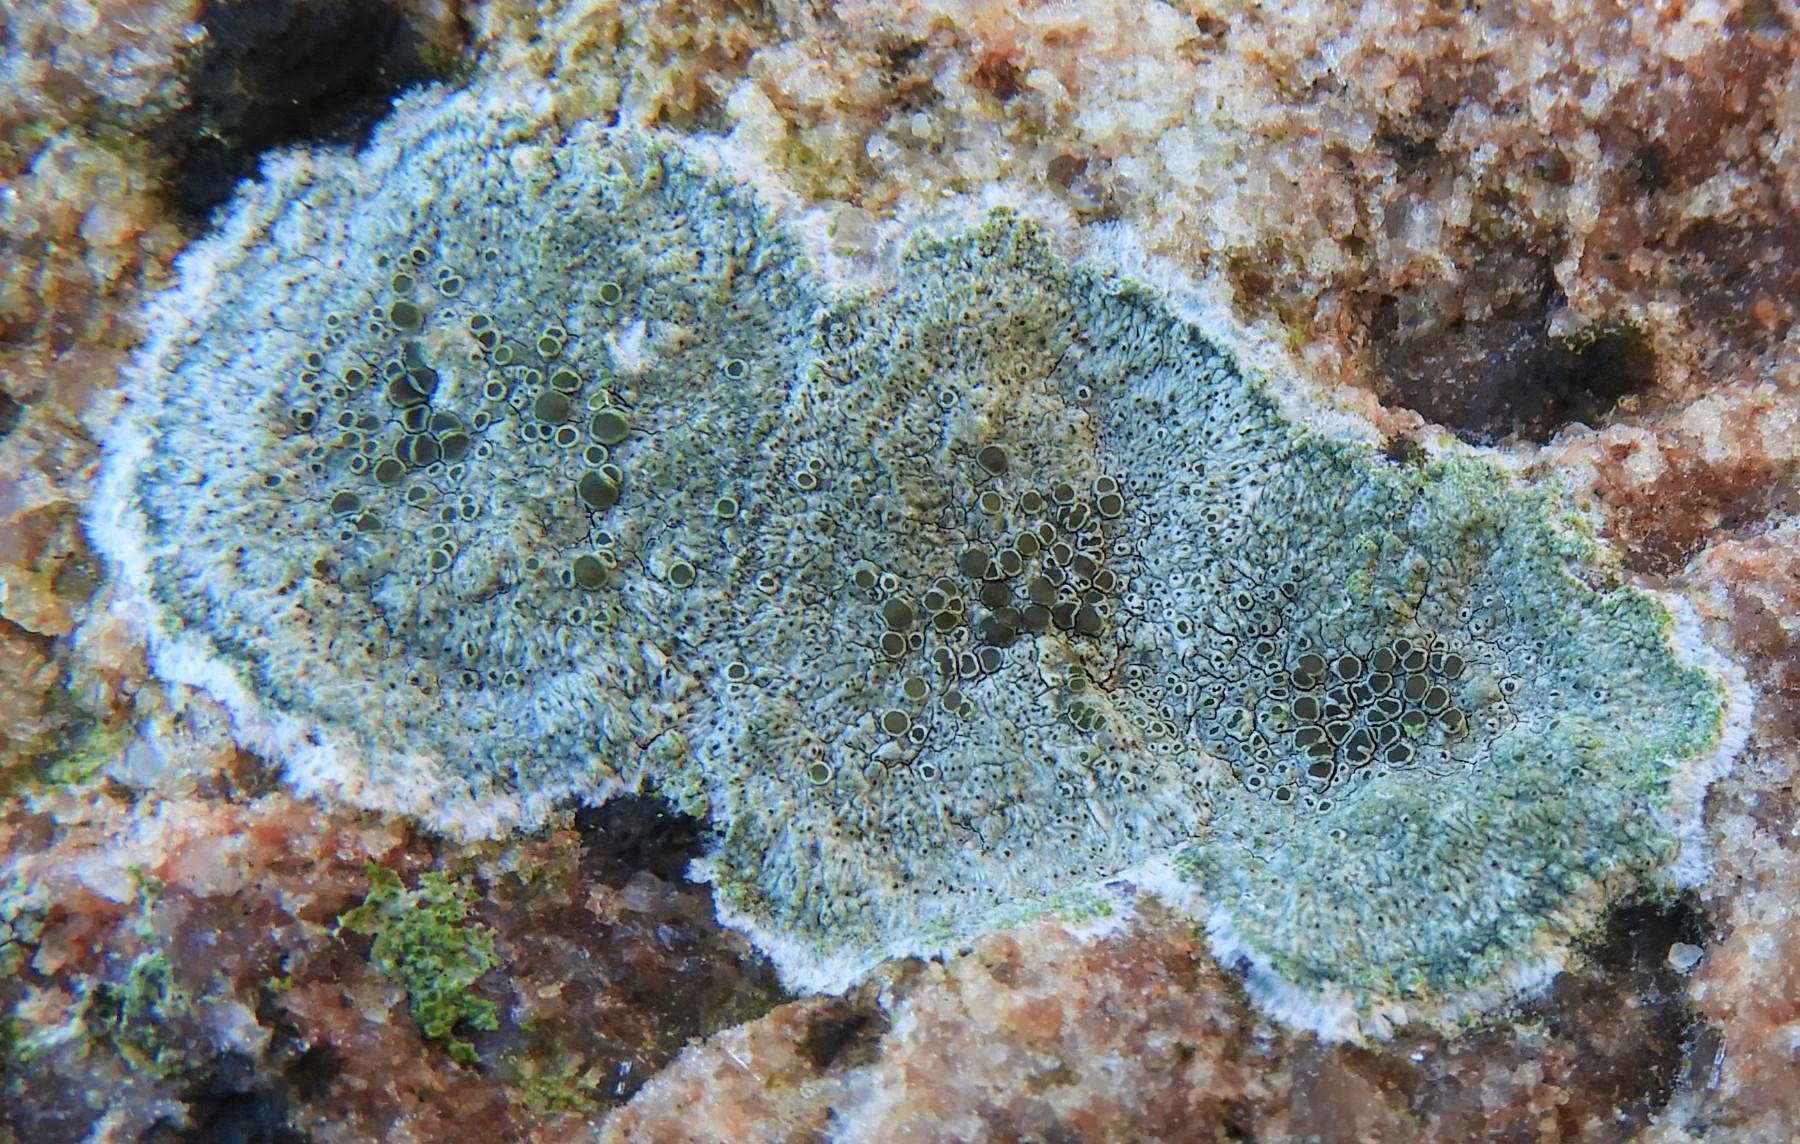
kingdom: Fungi
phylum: Ascomycota
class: Lecanoromycetes
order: Lecanorales
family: Lecanoraceae
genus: Lecanora
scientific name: Lecanora helicopis
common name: salt-kantskivelav
